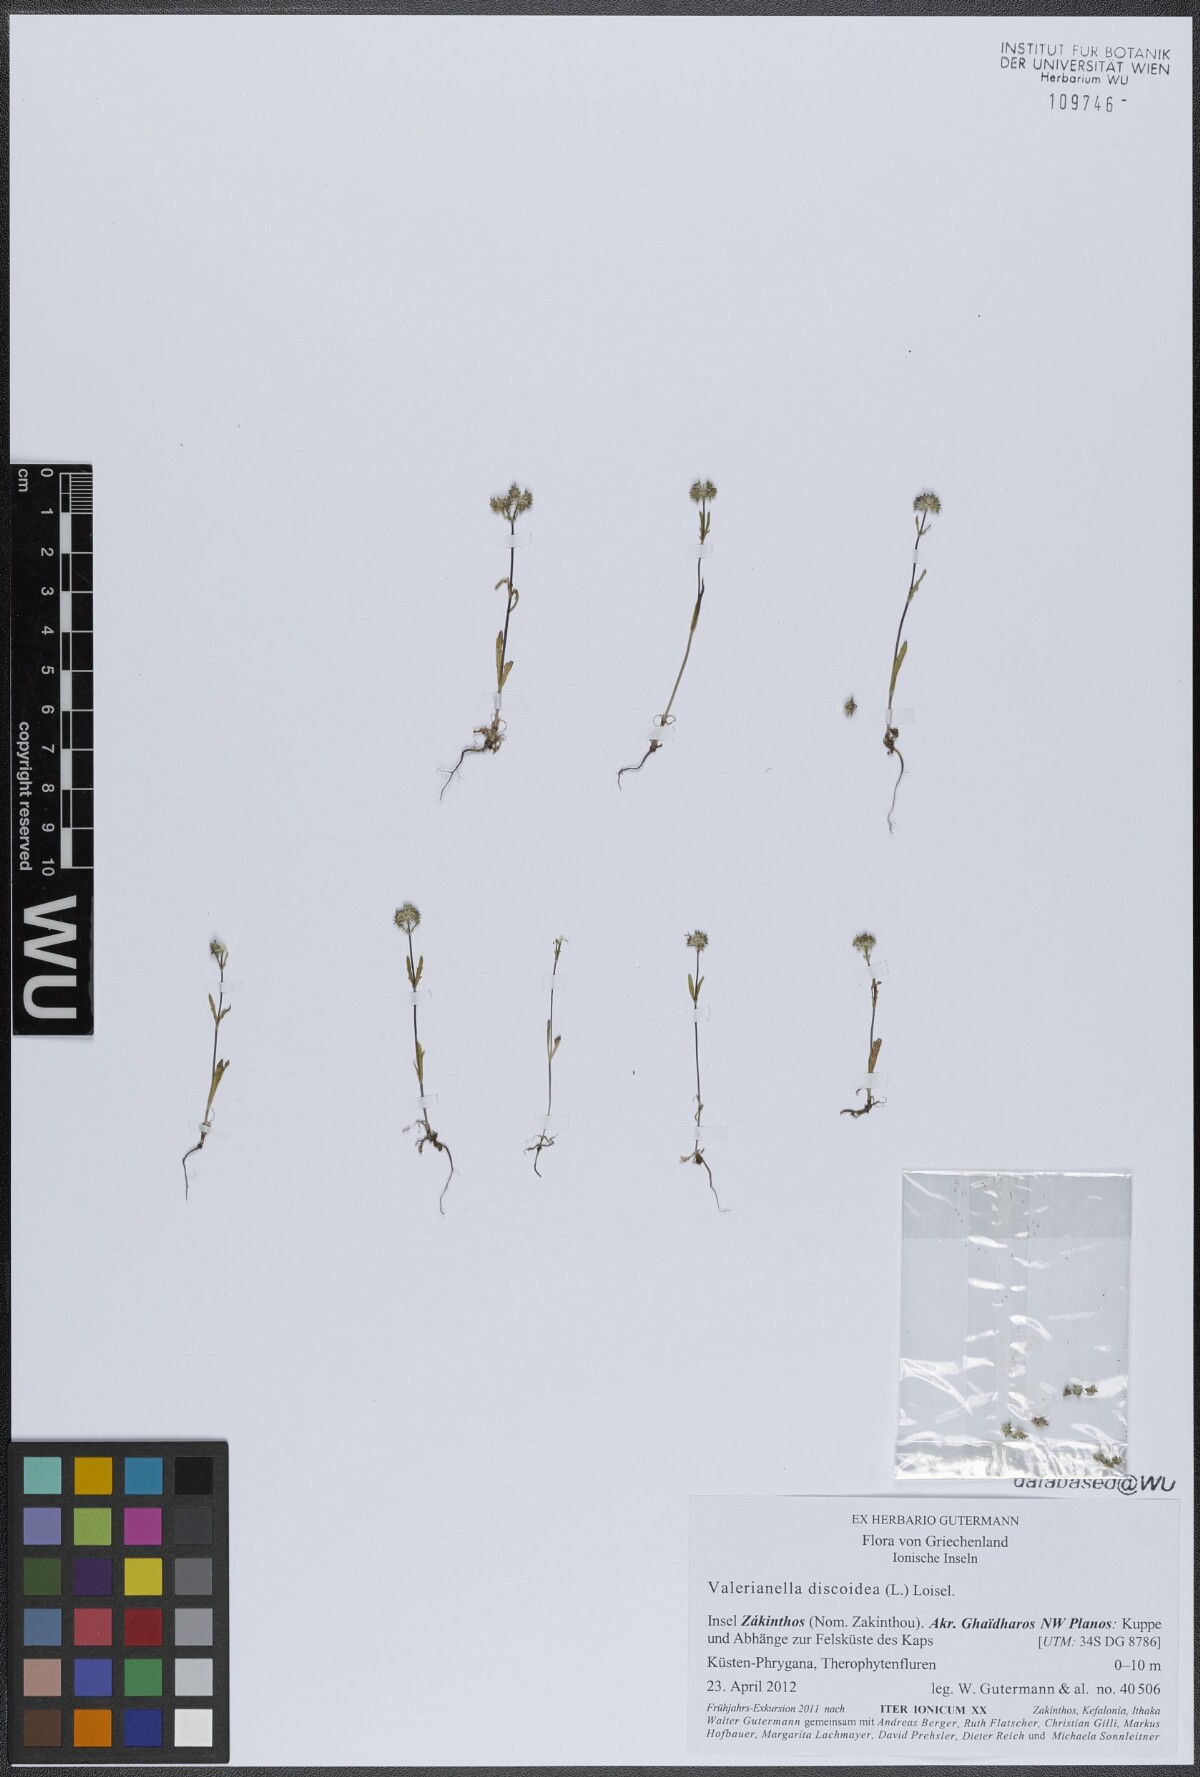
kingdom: Plantae
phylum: Tracheophyta
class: Magnoliopsida
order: Dipsacales
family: Caprifoliaceae
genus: Valerianella
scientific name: Valerianella discoidea
